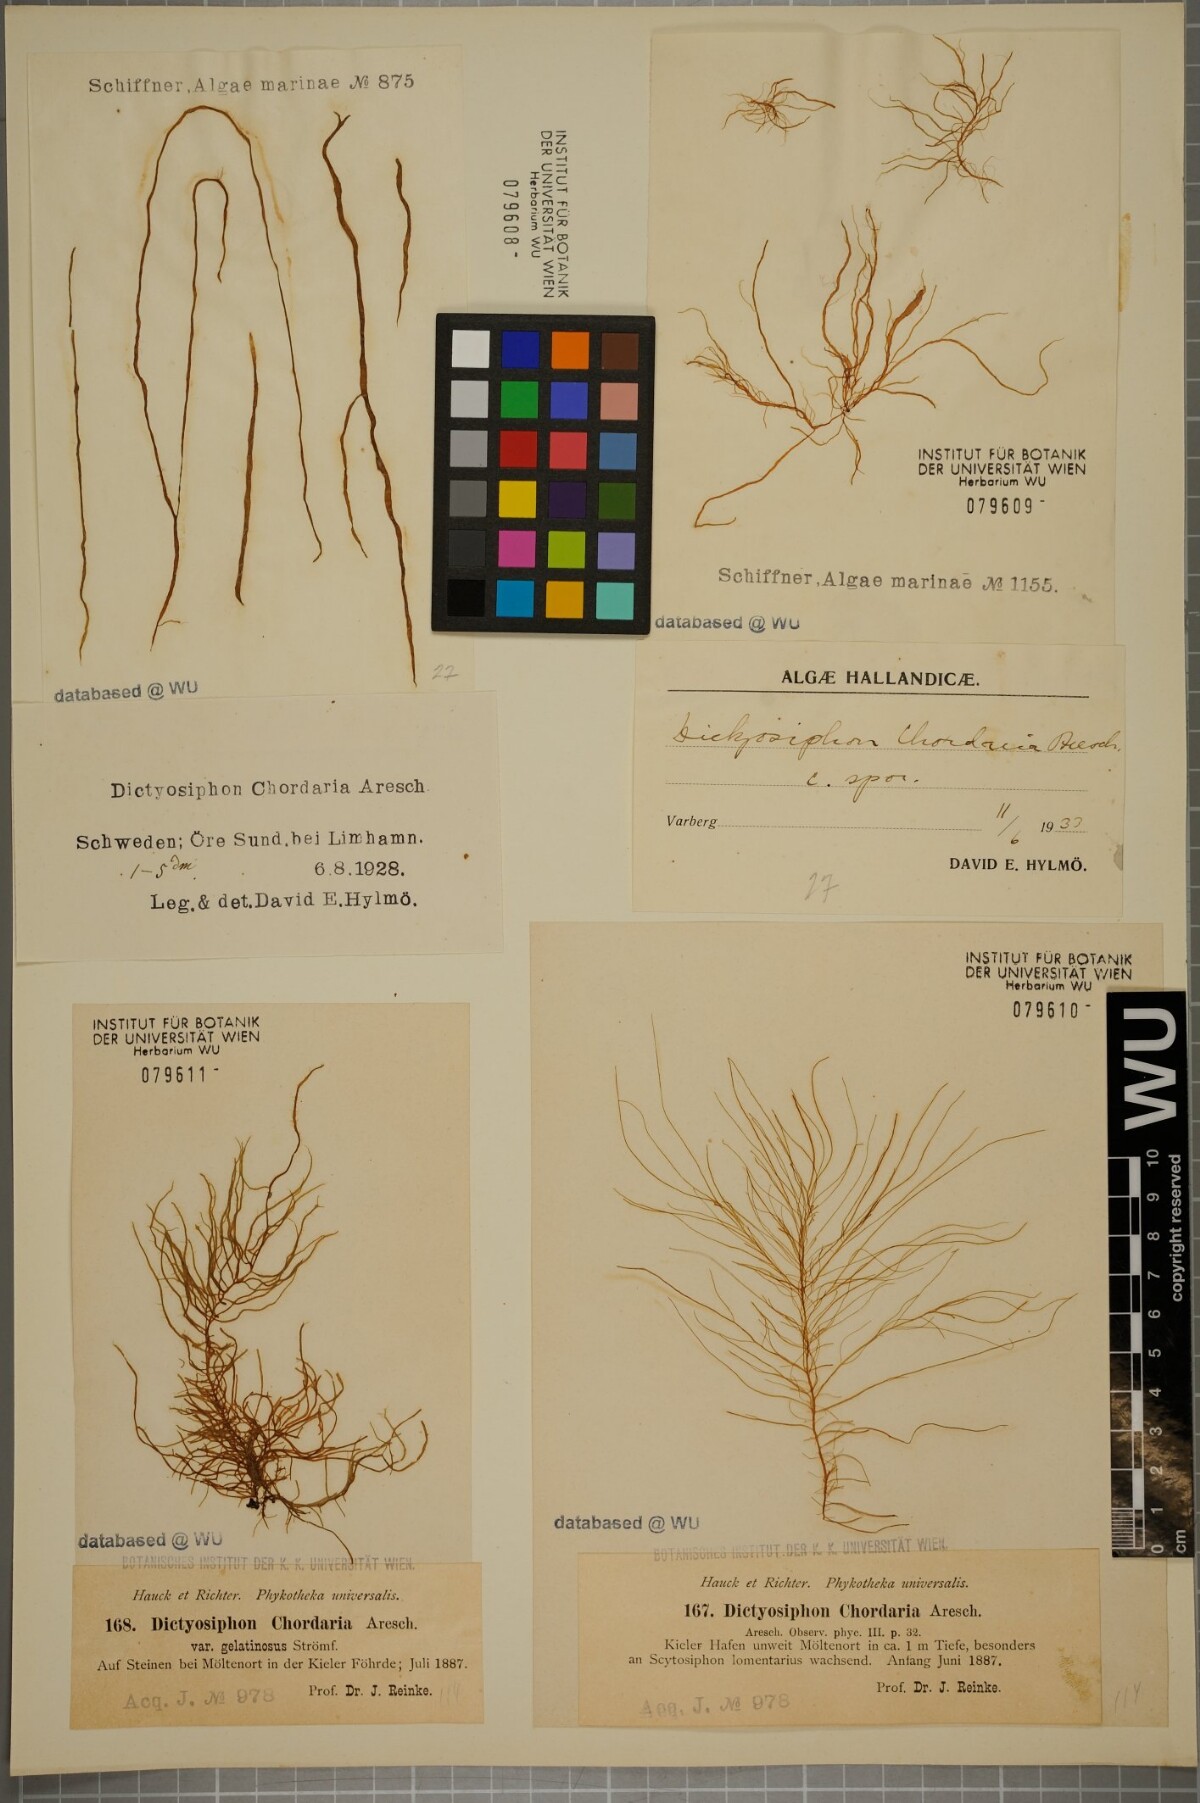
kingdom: Chromista
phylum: Ochrophyta
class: Phaeophyceae
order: Ectocarpales
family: Chordariaceae
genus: Dictyosiphon
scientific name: Dictyosiphon chordaria
